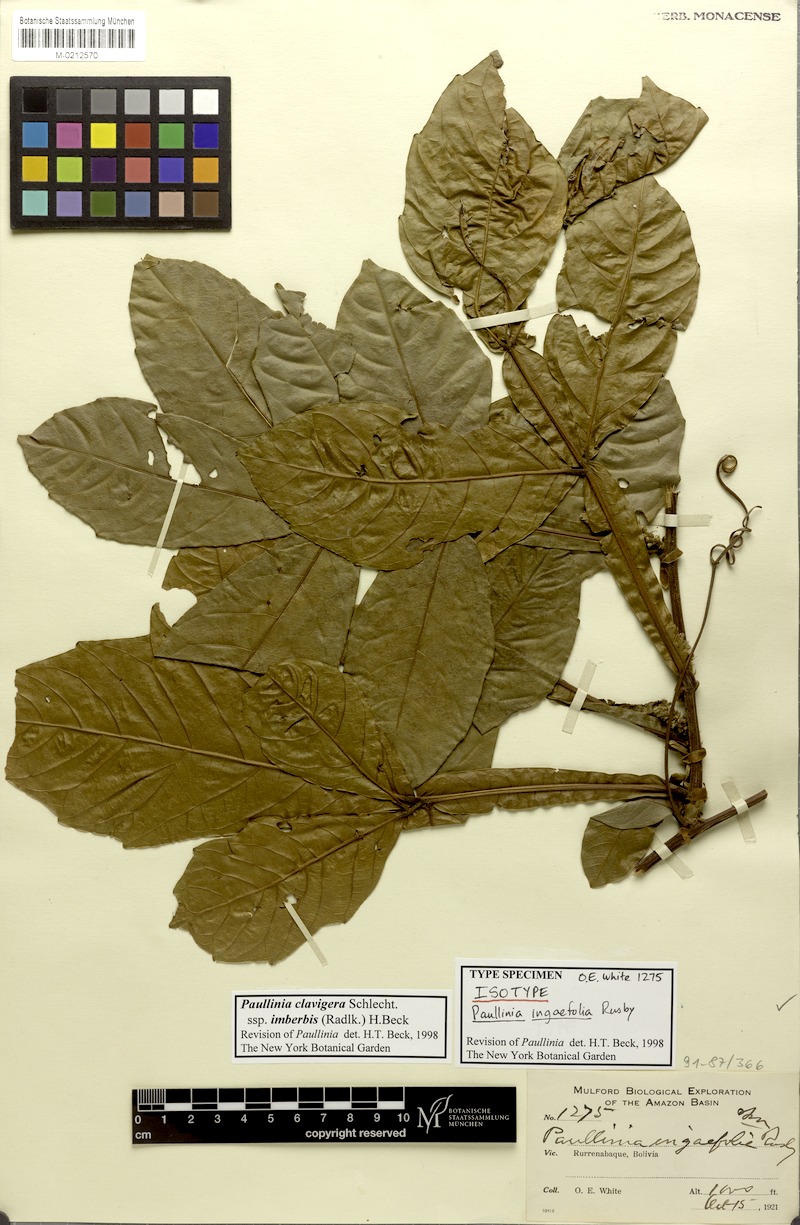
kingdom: Plantae
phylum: Tracheophyta
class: Magnoliopsida
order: Sapindales
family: Sapindaceae
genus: Paullinia
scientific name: Paullinia clavigera
